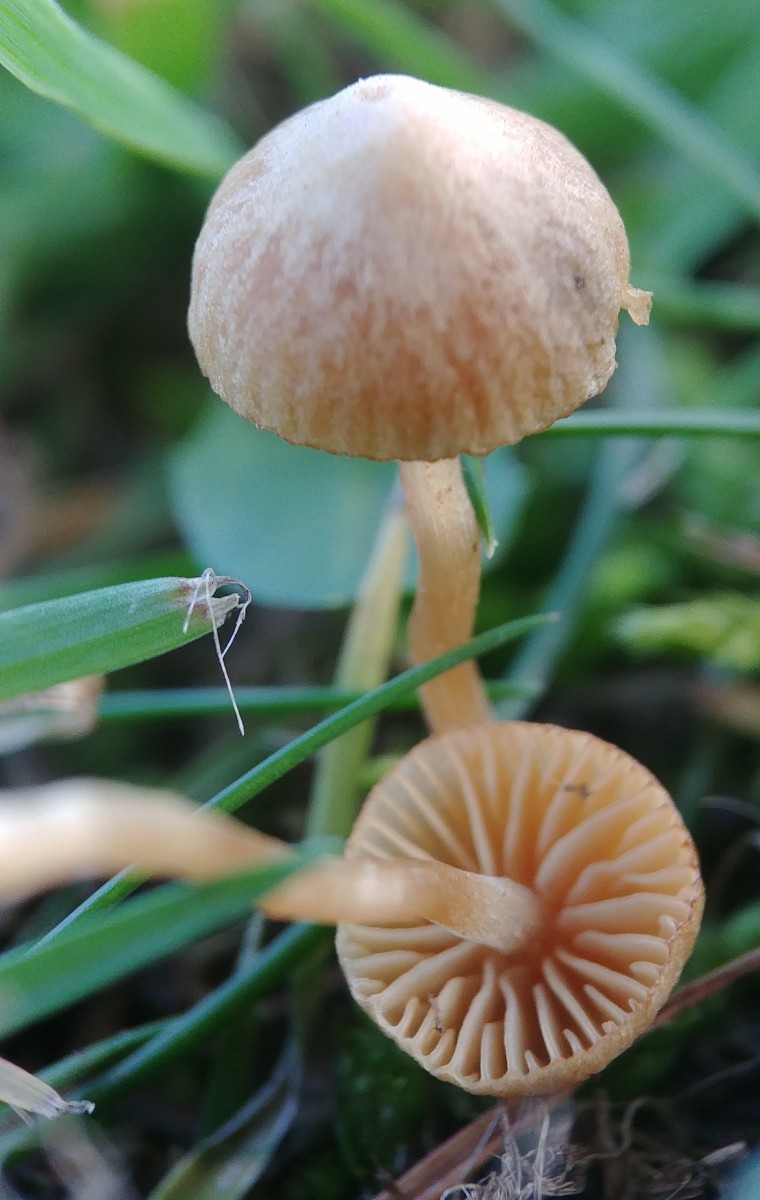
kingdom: Fungi
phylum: Basidiomycota
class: Agaricomycetes
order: Agaricales
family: Hymenogastraceae
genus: Galerina
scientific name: Galerina graminea
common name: plæne-hjelmhat
